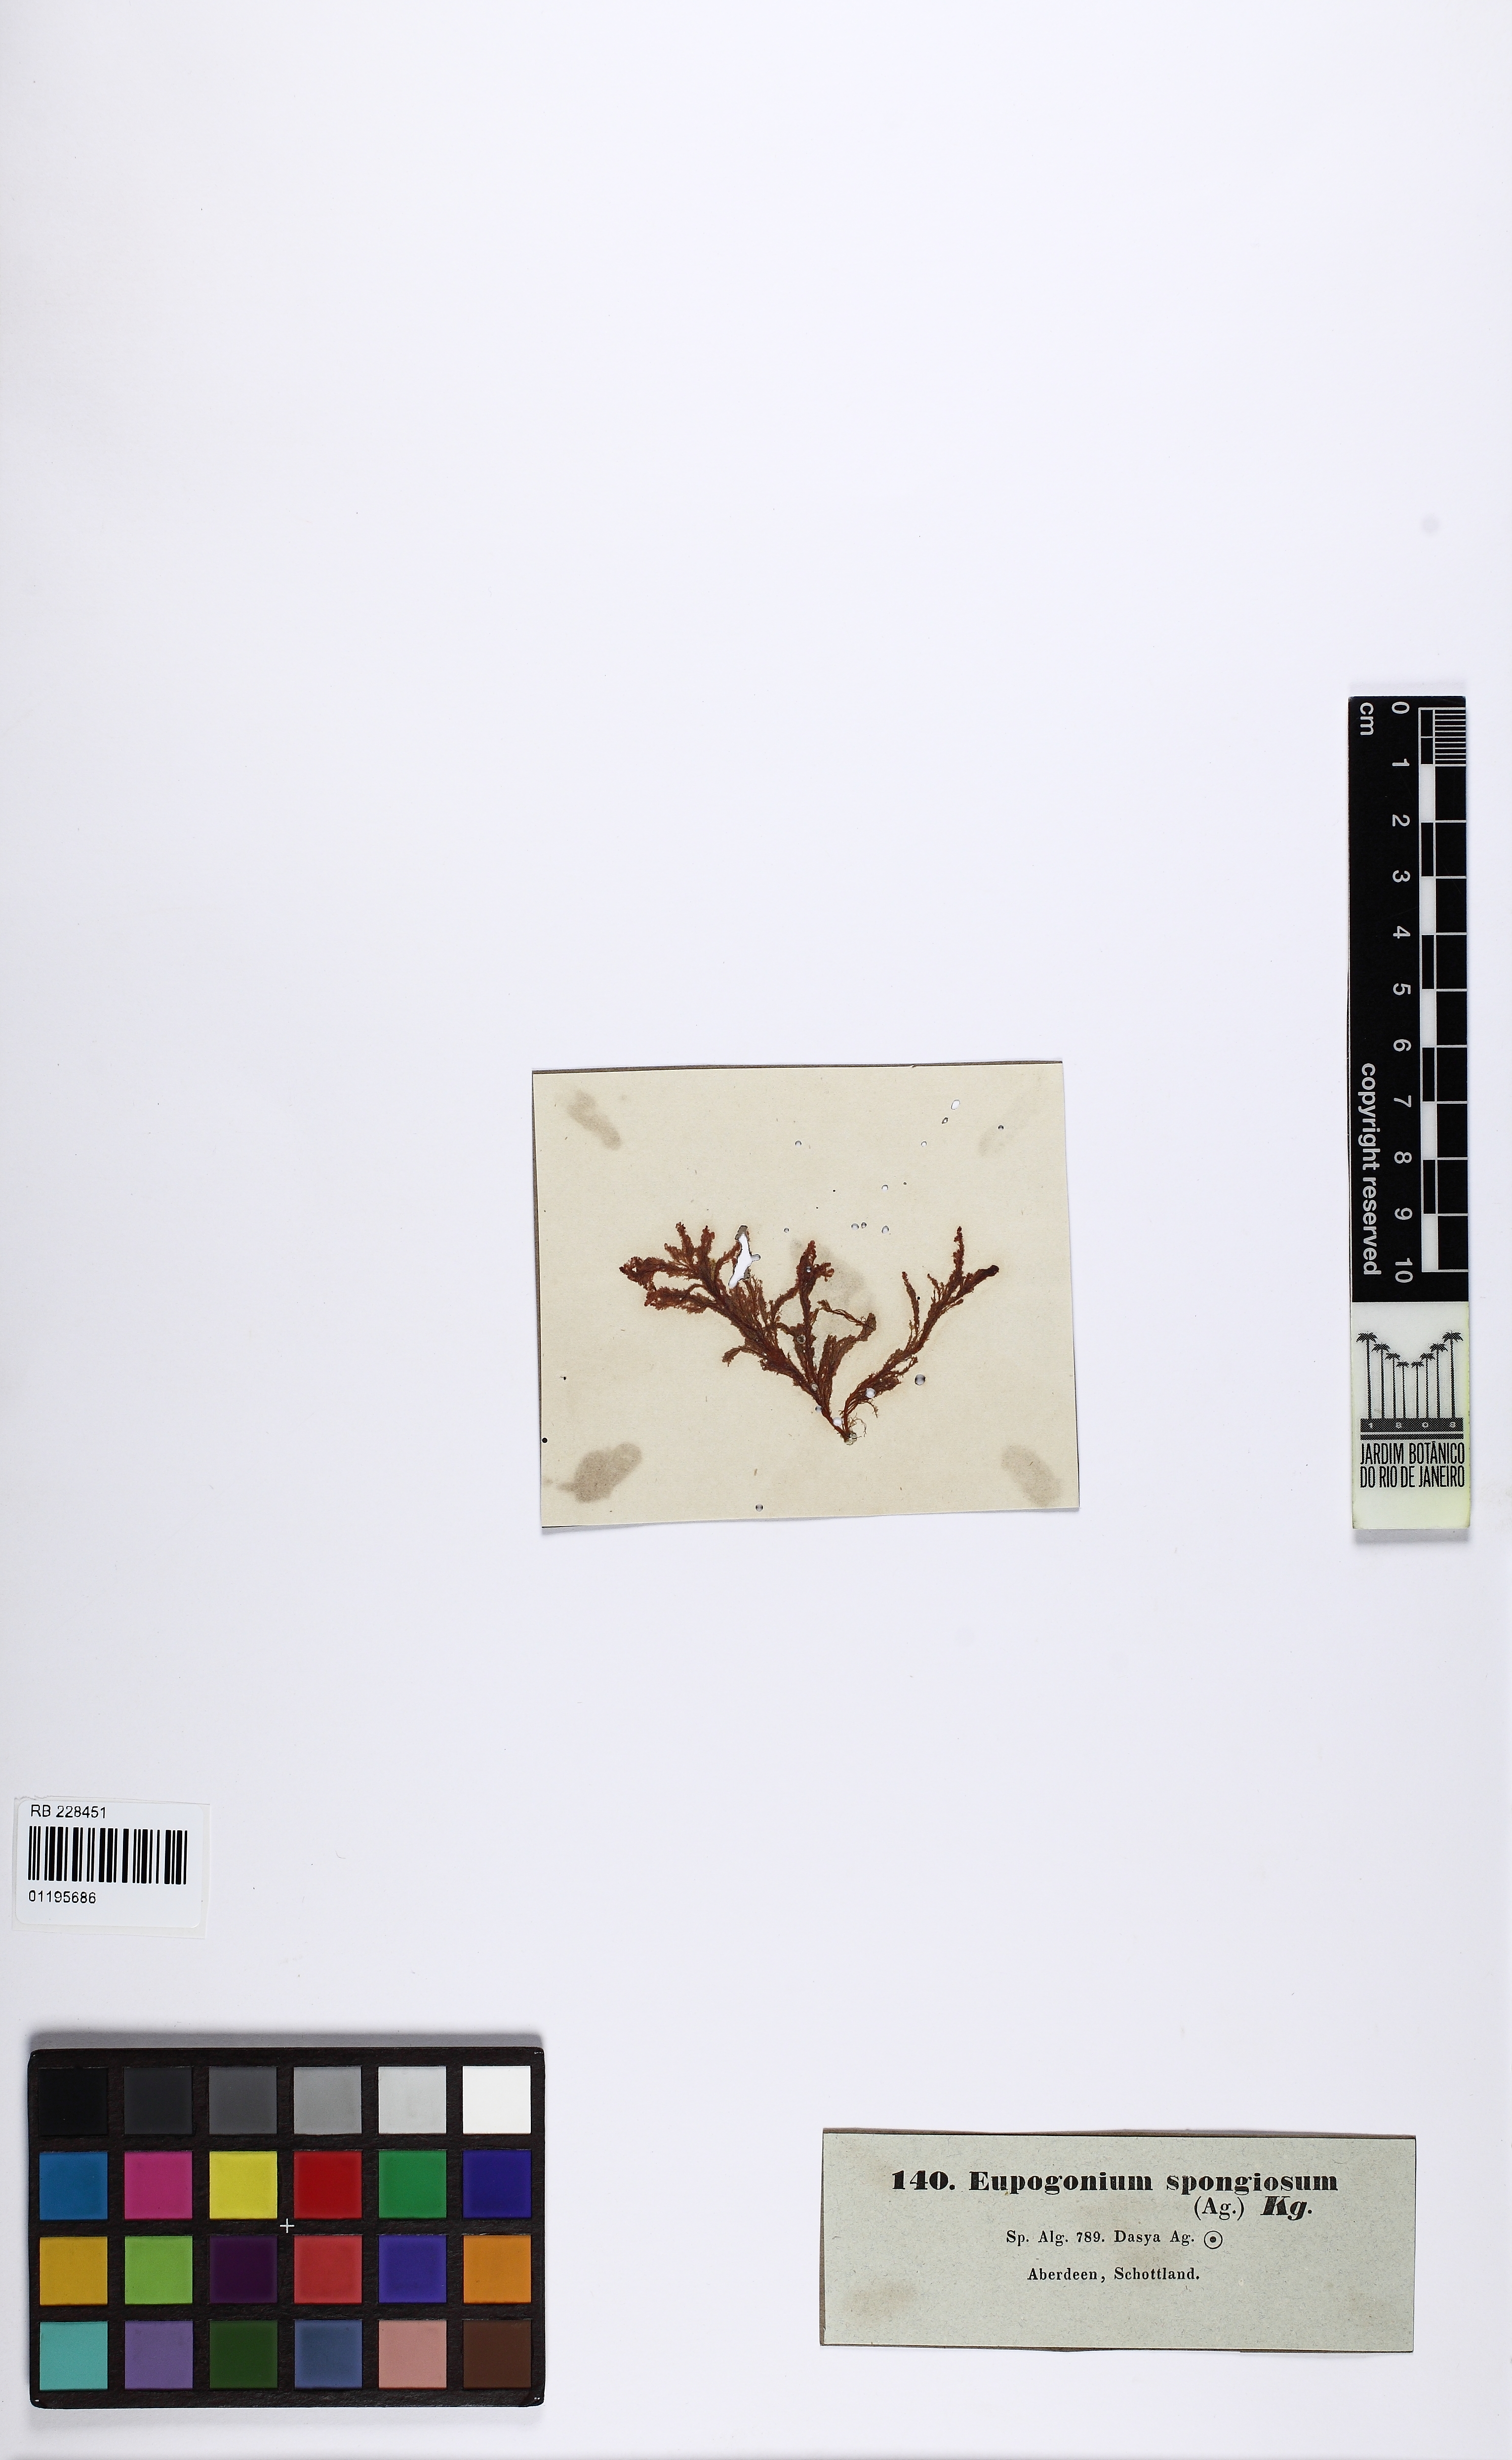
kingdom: Plantae
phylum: Rhodophyta
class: Florideophyceae
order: Ceramiales
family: Dasyaceae
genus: Dasya
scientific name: Dasya
